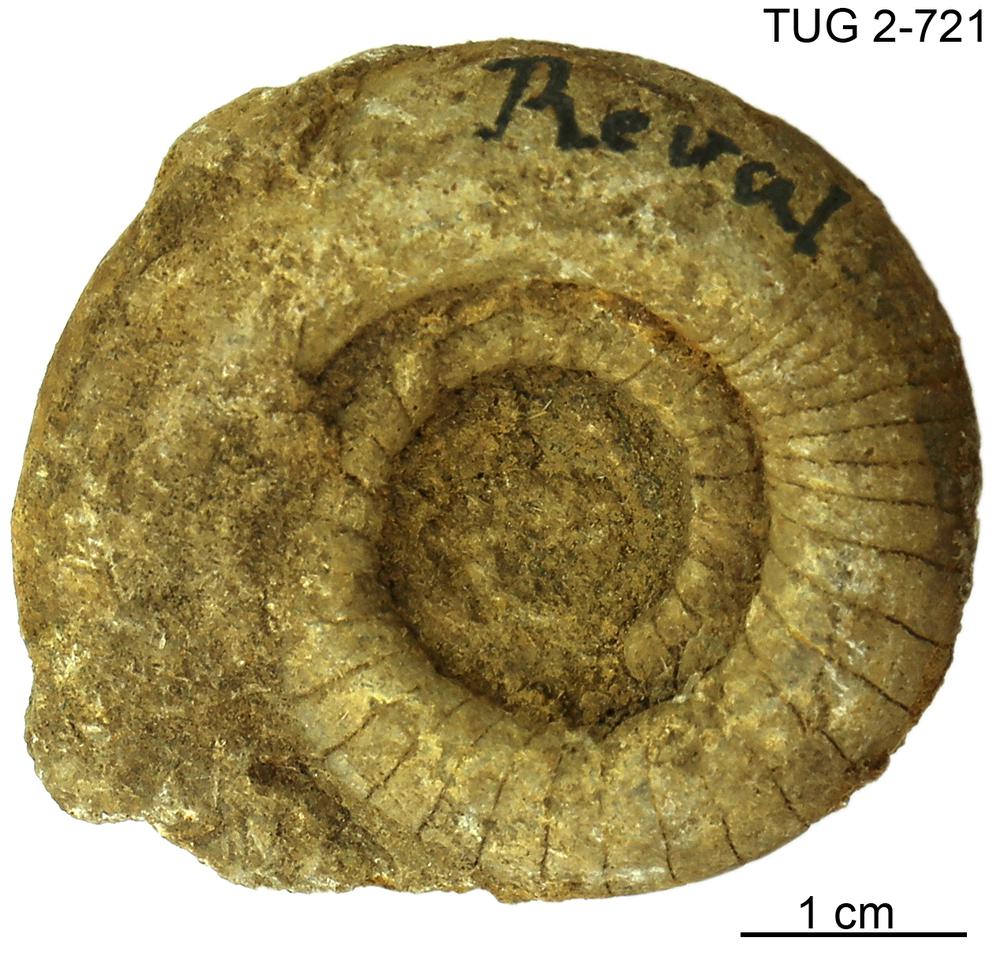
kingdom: Animalia
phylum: Mollusca
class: Cephalopoda
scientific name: Cephalopoda
